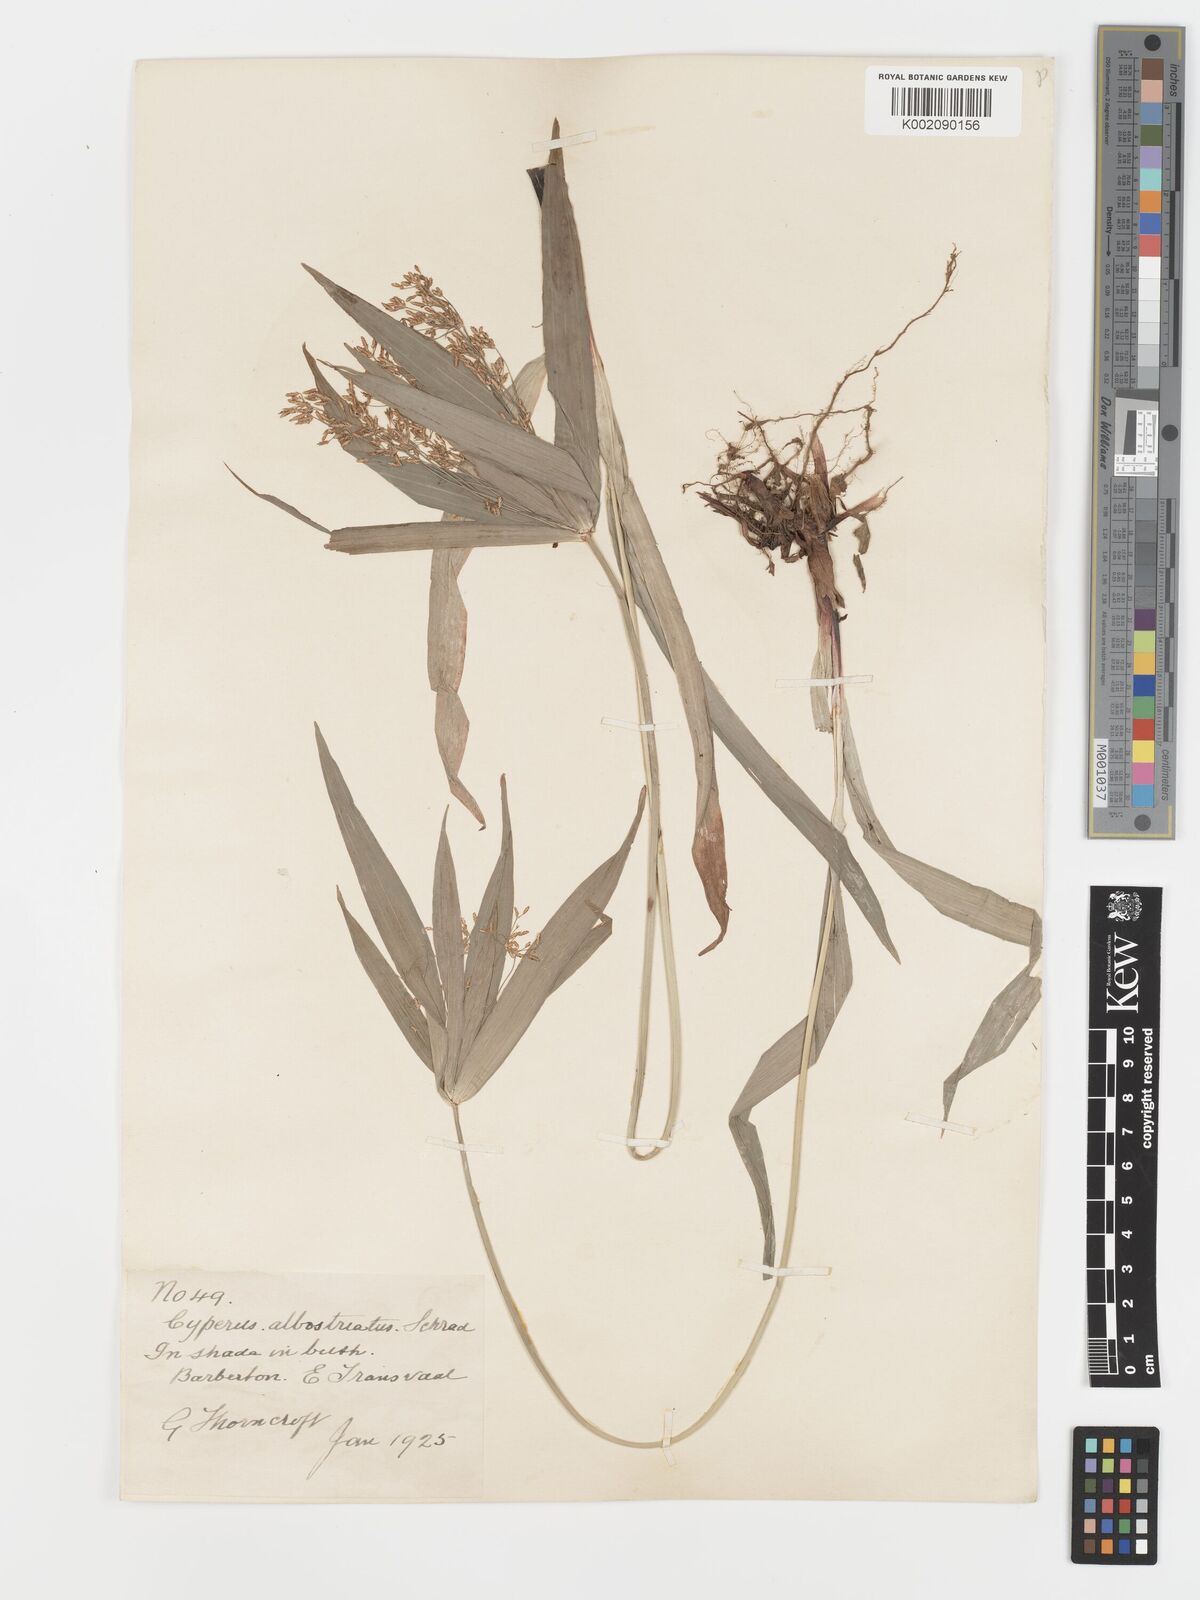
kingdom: Plantae
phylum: Tracheophyta
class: Liliopsida
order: Poales
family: Cyperaceae
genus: Cyperus
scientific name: Cyperus albostriatus
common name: Dwarf umbrella-grass
